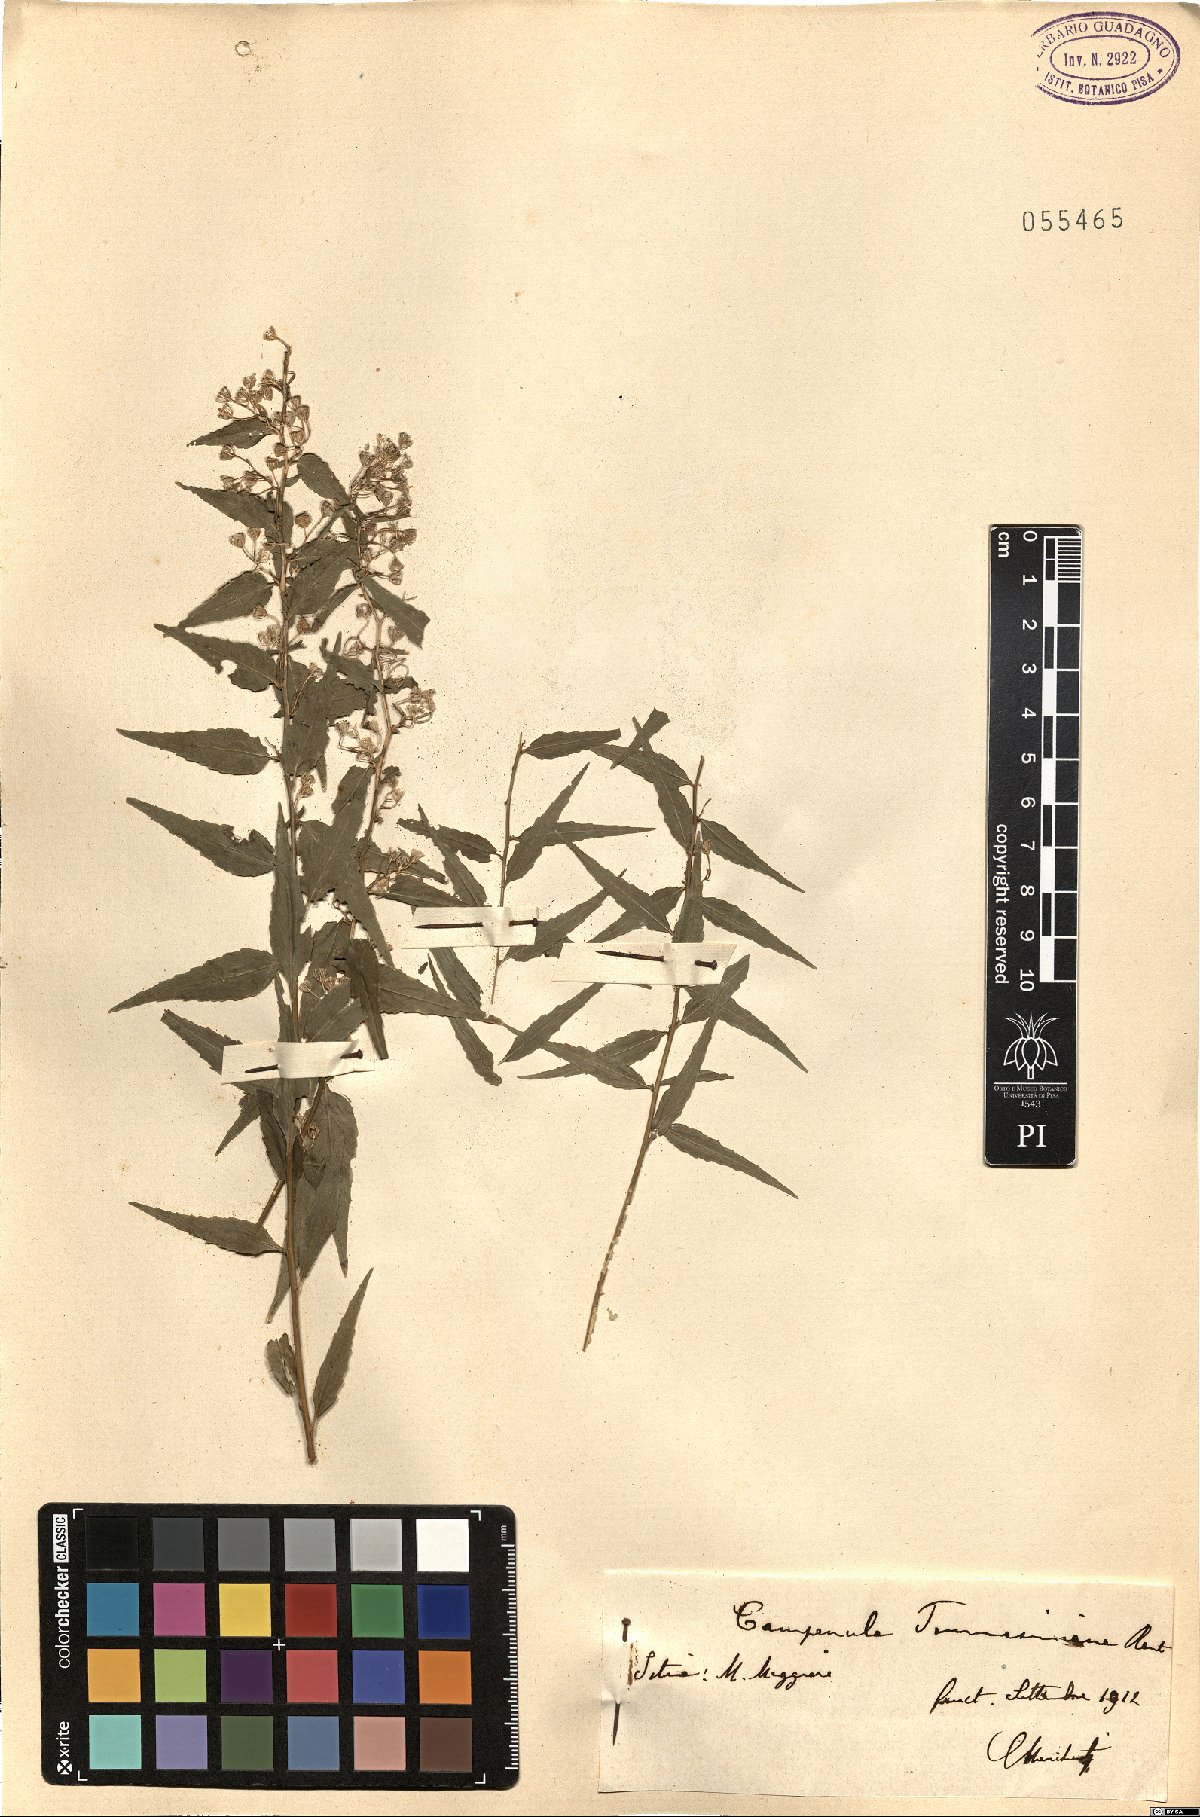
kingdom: Plantae
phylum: Tracheophyta
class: Magnoliopsida
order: Asterales
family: Campanulaceae
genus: Campanula
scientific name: Campanula tommasiniana
